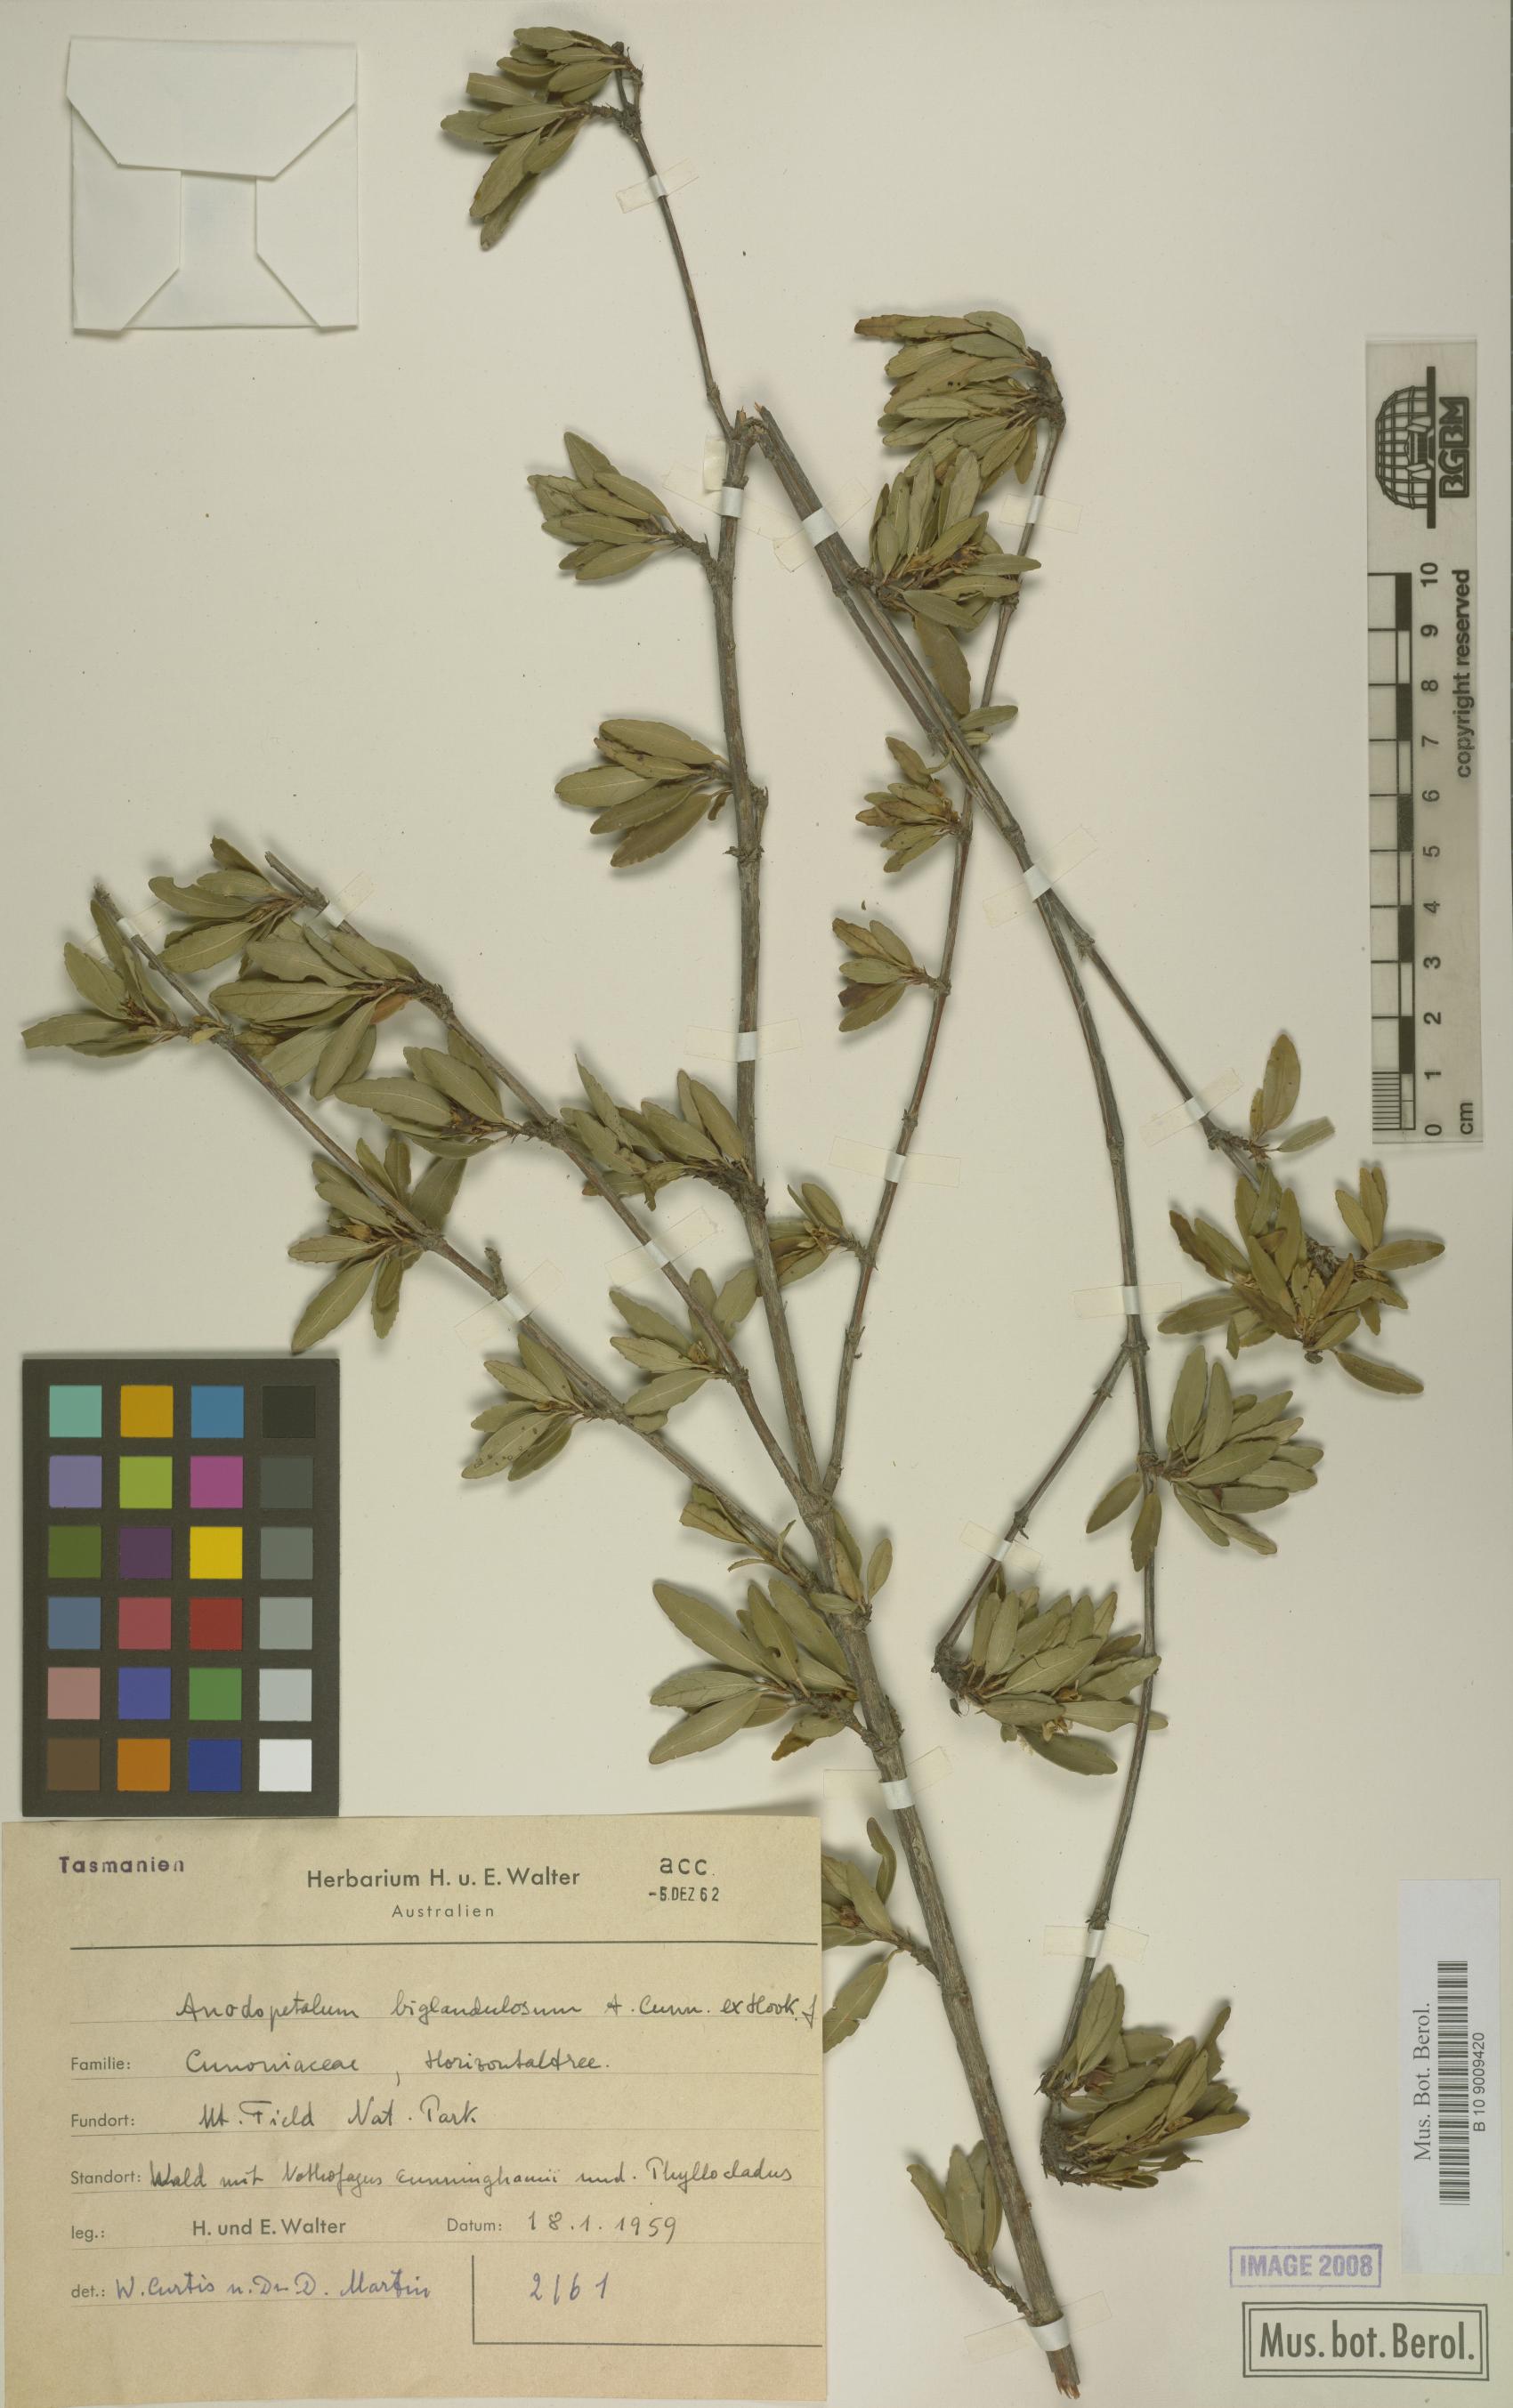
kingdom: Plantae
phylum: Tracheophyta
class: Magnoliopsida
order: Oxalidales
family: Cunoniaceae
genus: Anodopetalum
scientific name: Anodopetalum biglandulosum
